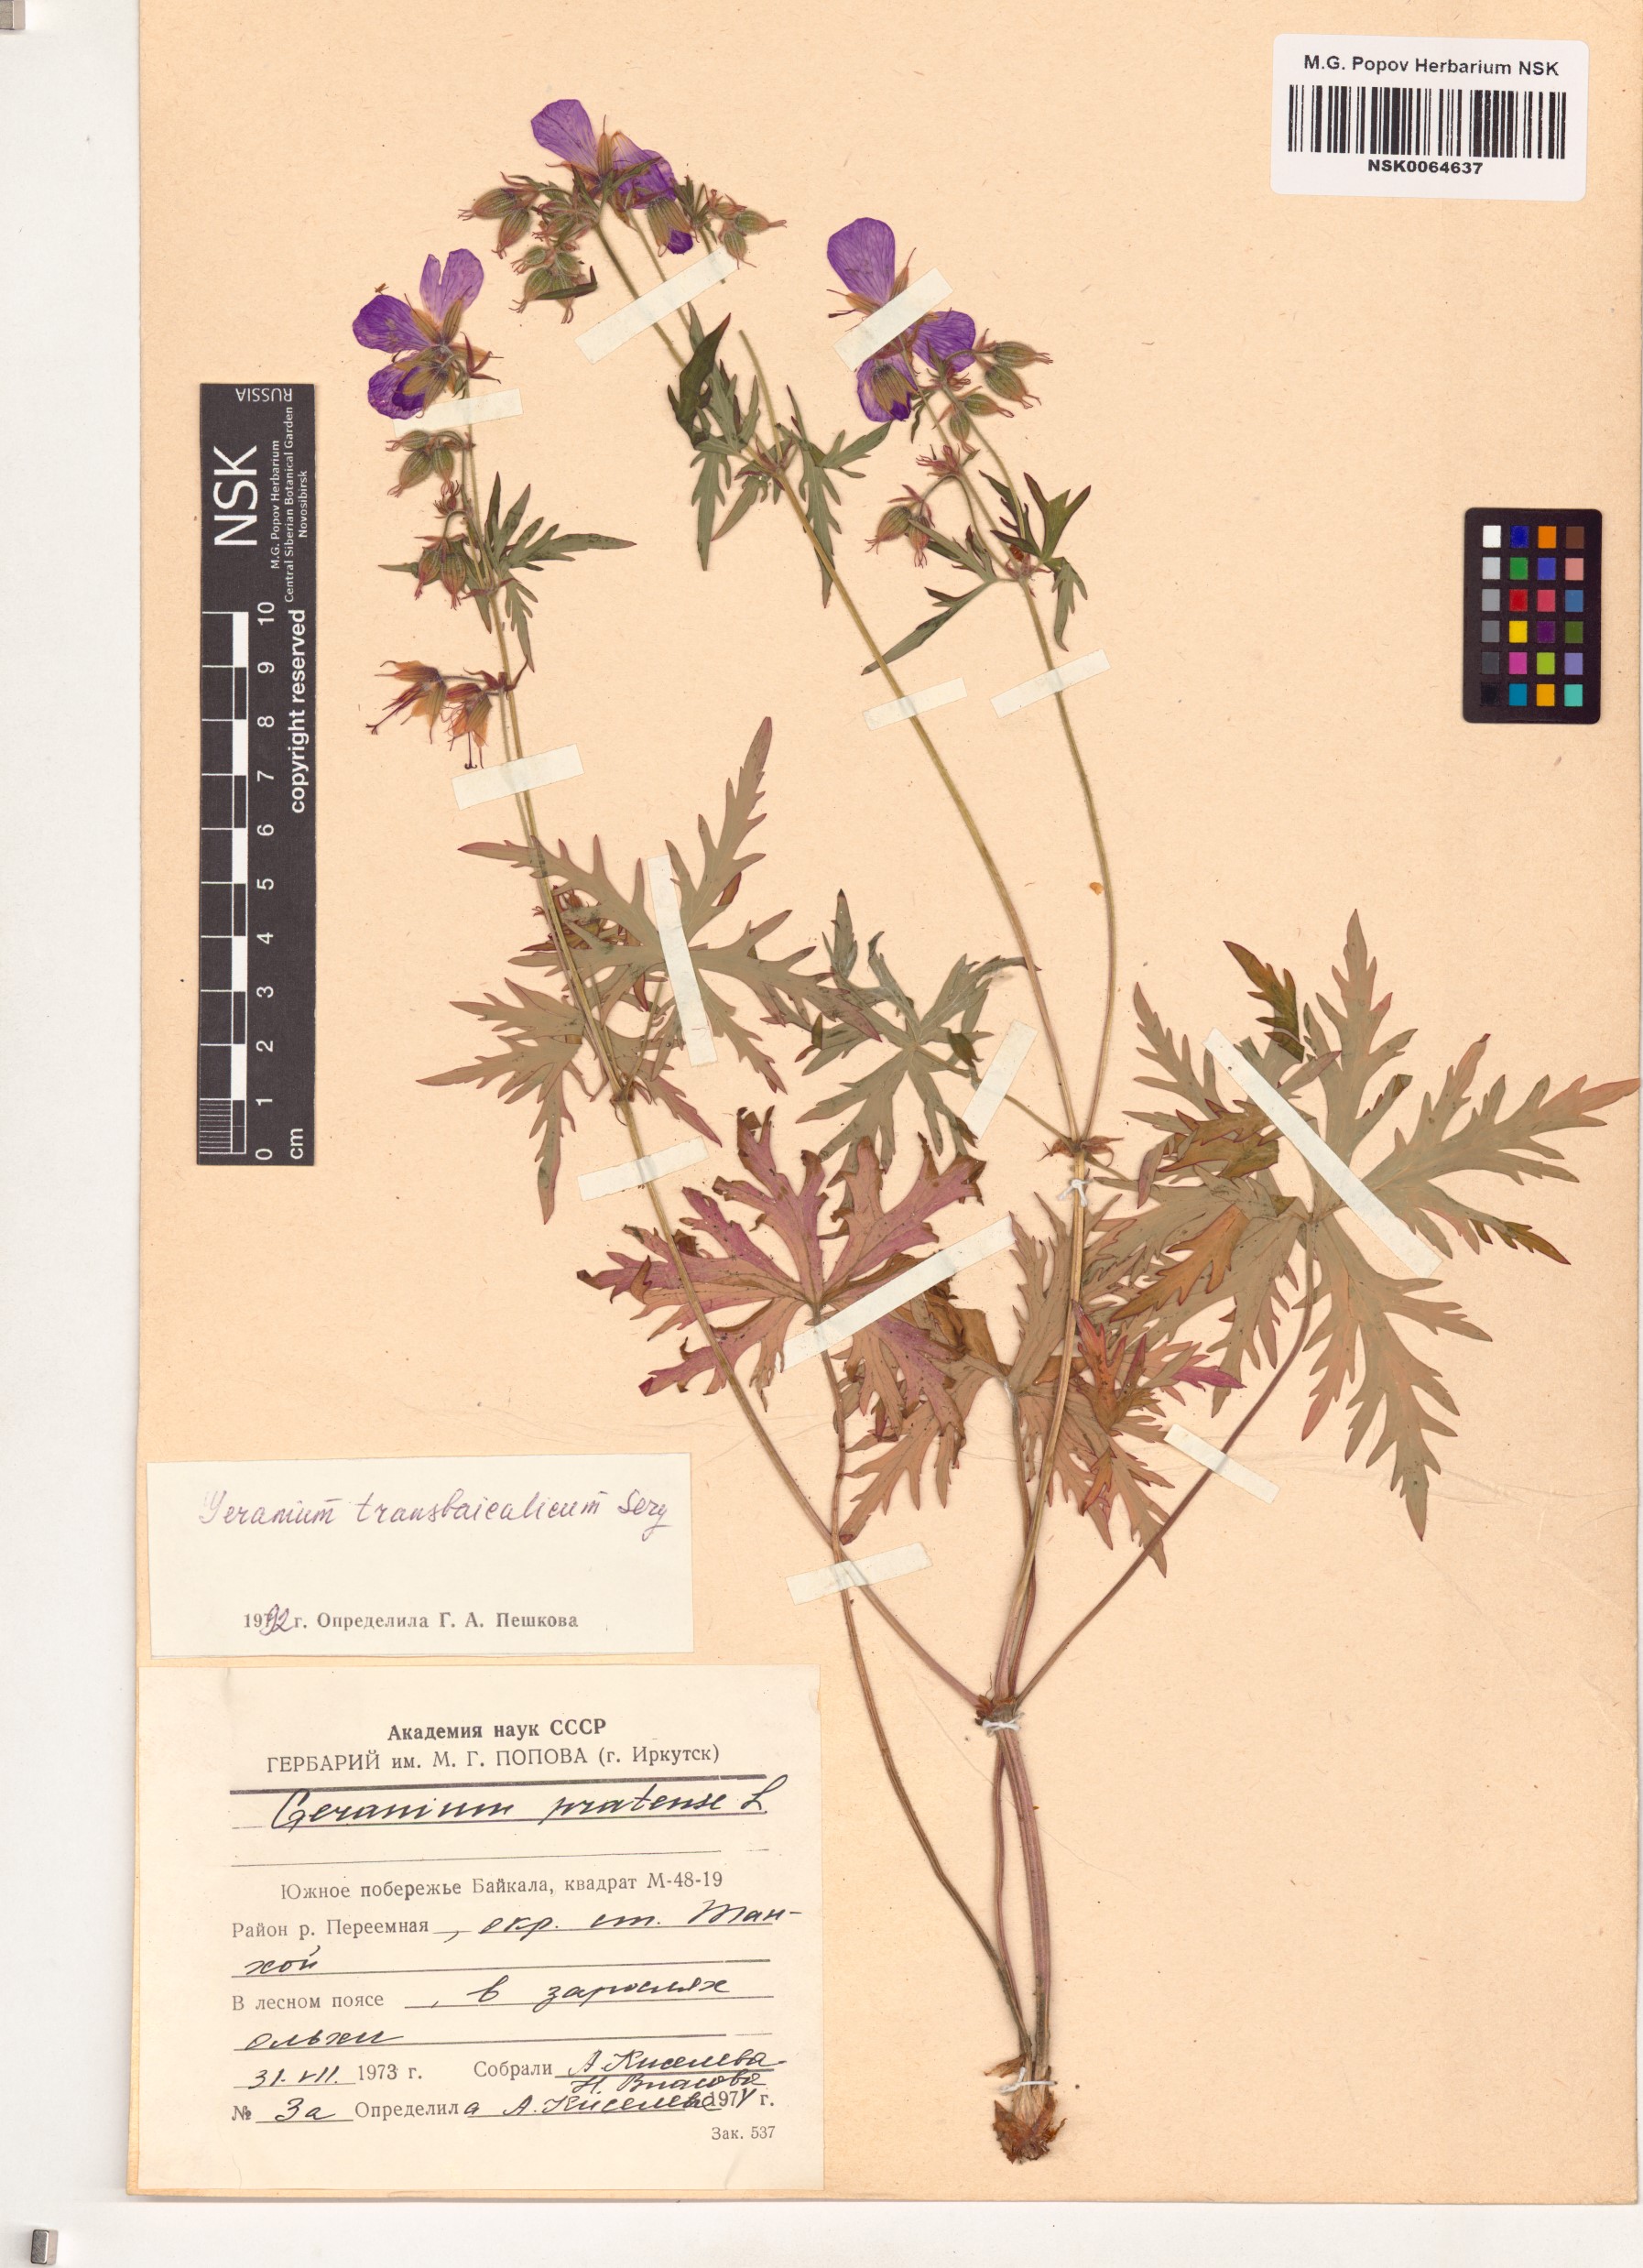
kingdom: Plantae
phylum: Tracheophyta
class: Magnoliopsida
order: Geraniales
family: Geraniaceae
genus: Geranium
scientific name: Geranium pratense
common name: Meadow crane's-bill
